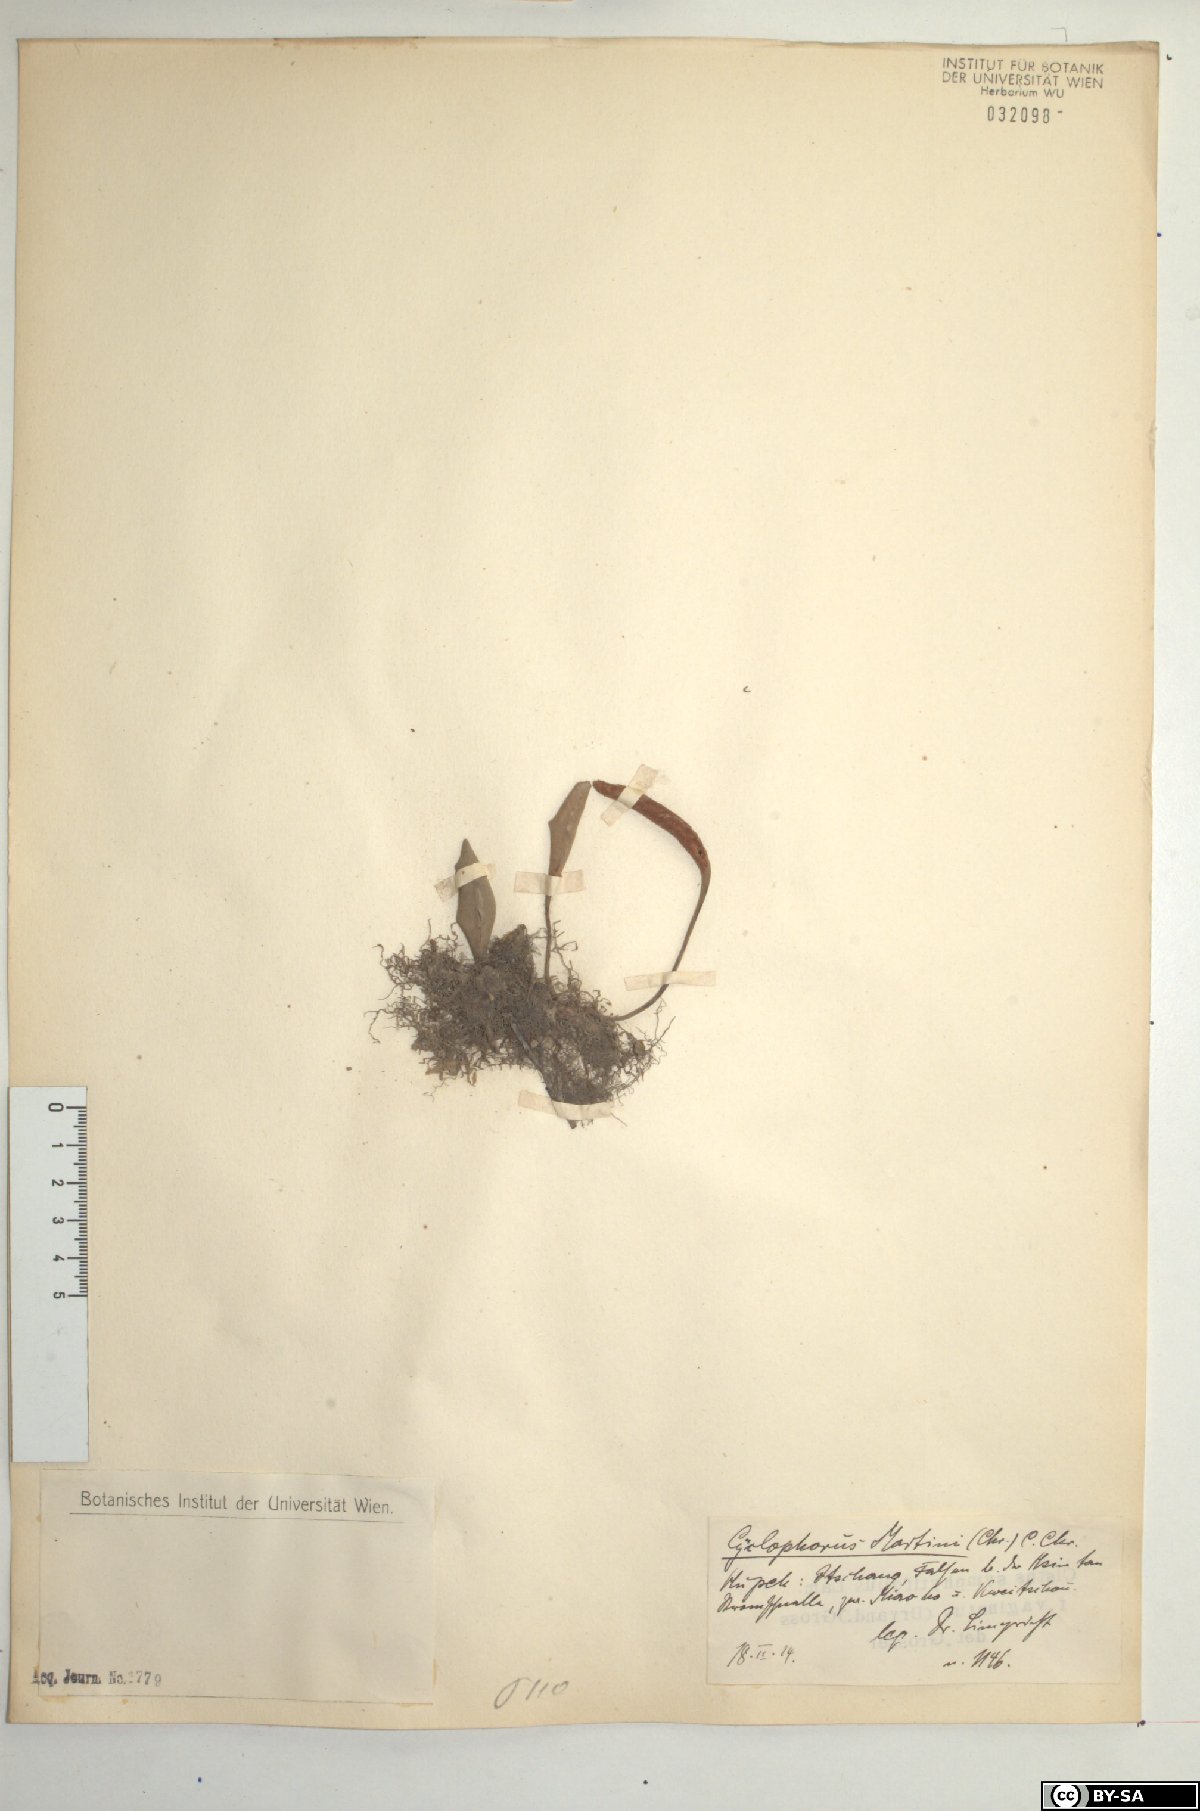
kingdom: Plantae
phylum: Tracheophyta
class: Polypodiopsida
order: Polypodiales
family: Polypodiaceae
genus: Pyrrosia
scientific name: Pyrrosia lingua
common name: Felt fern
